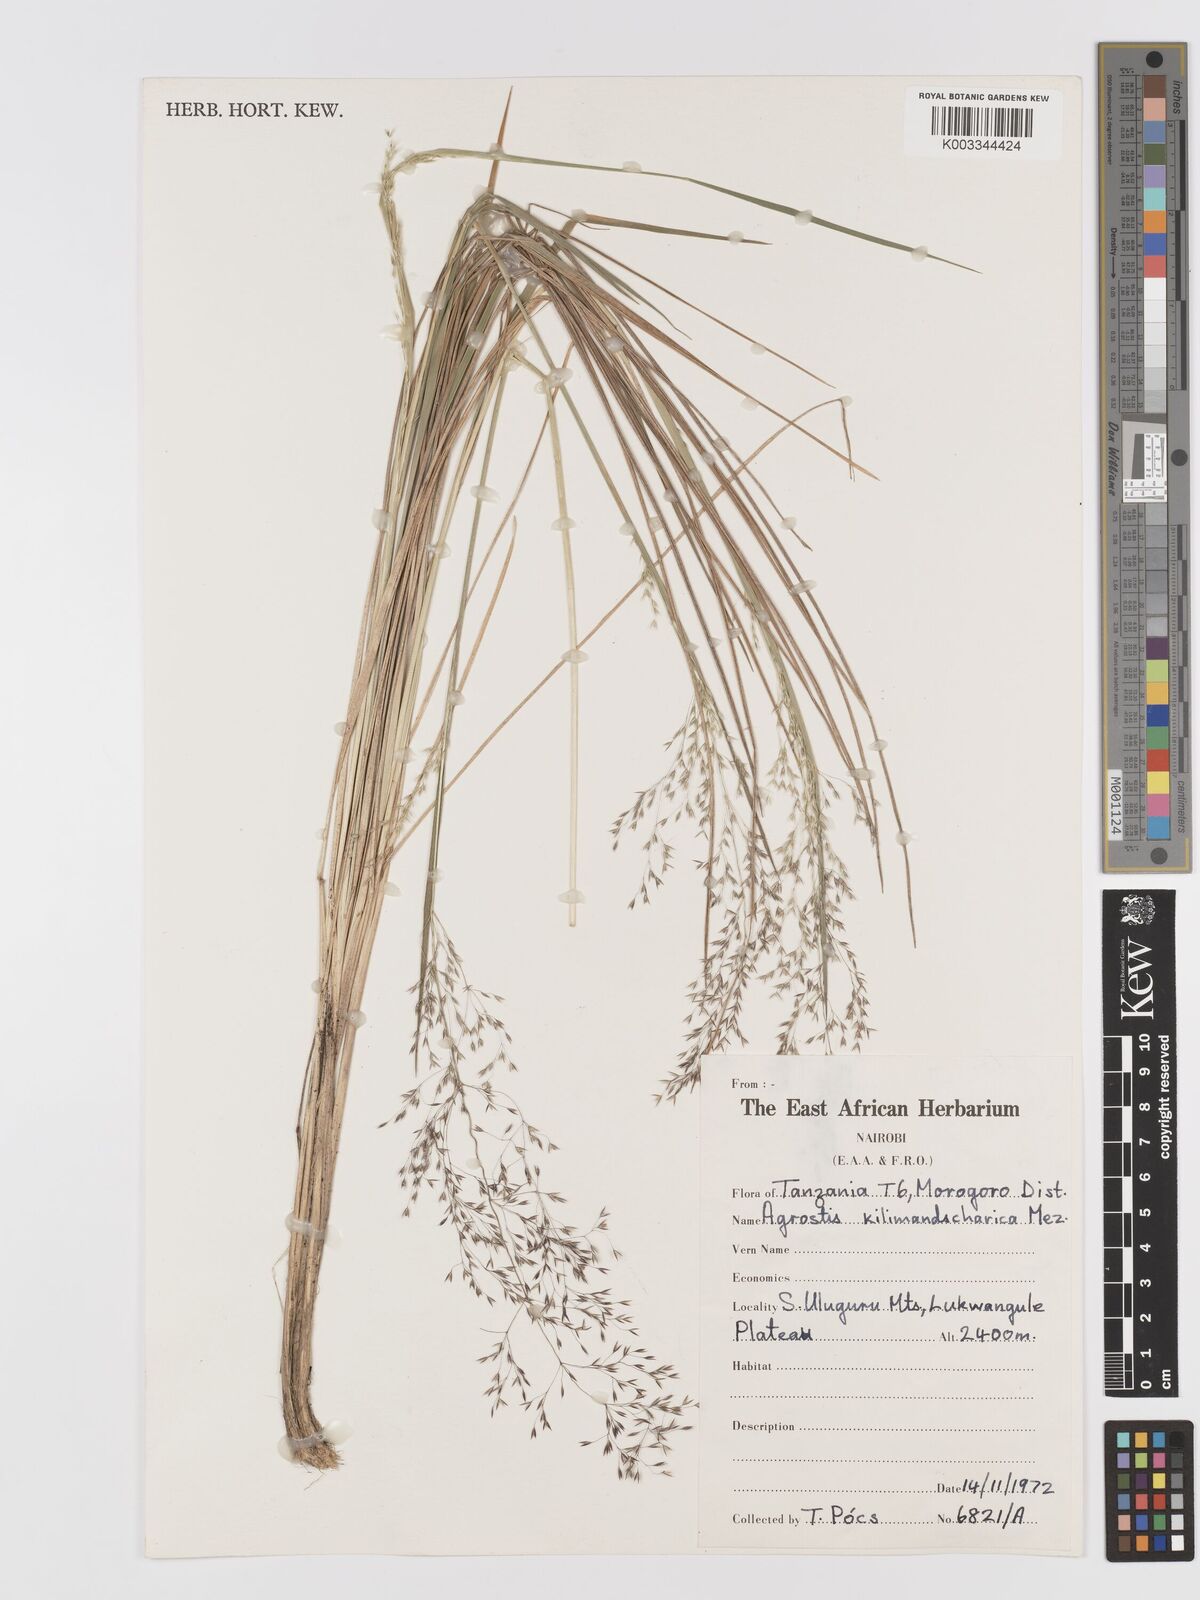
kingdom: Plantae
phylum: Tracheophyta
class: Liliopsida
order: Poales
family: Poaceae
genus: Agrostis
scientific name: Agrostis kilimandscharica
